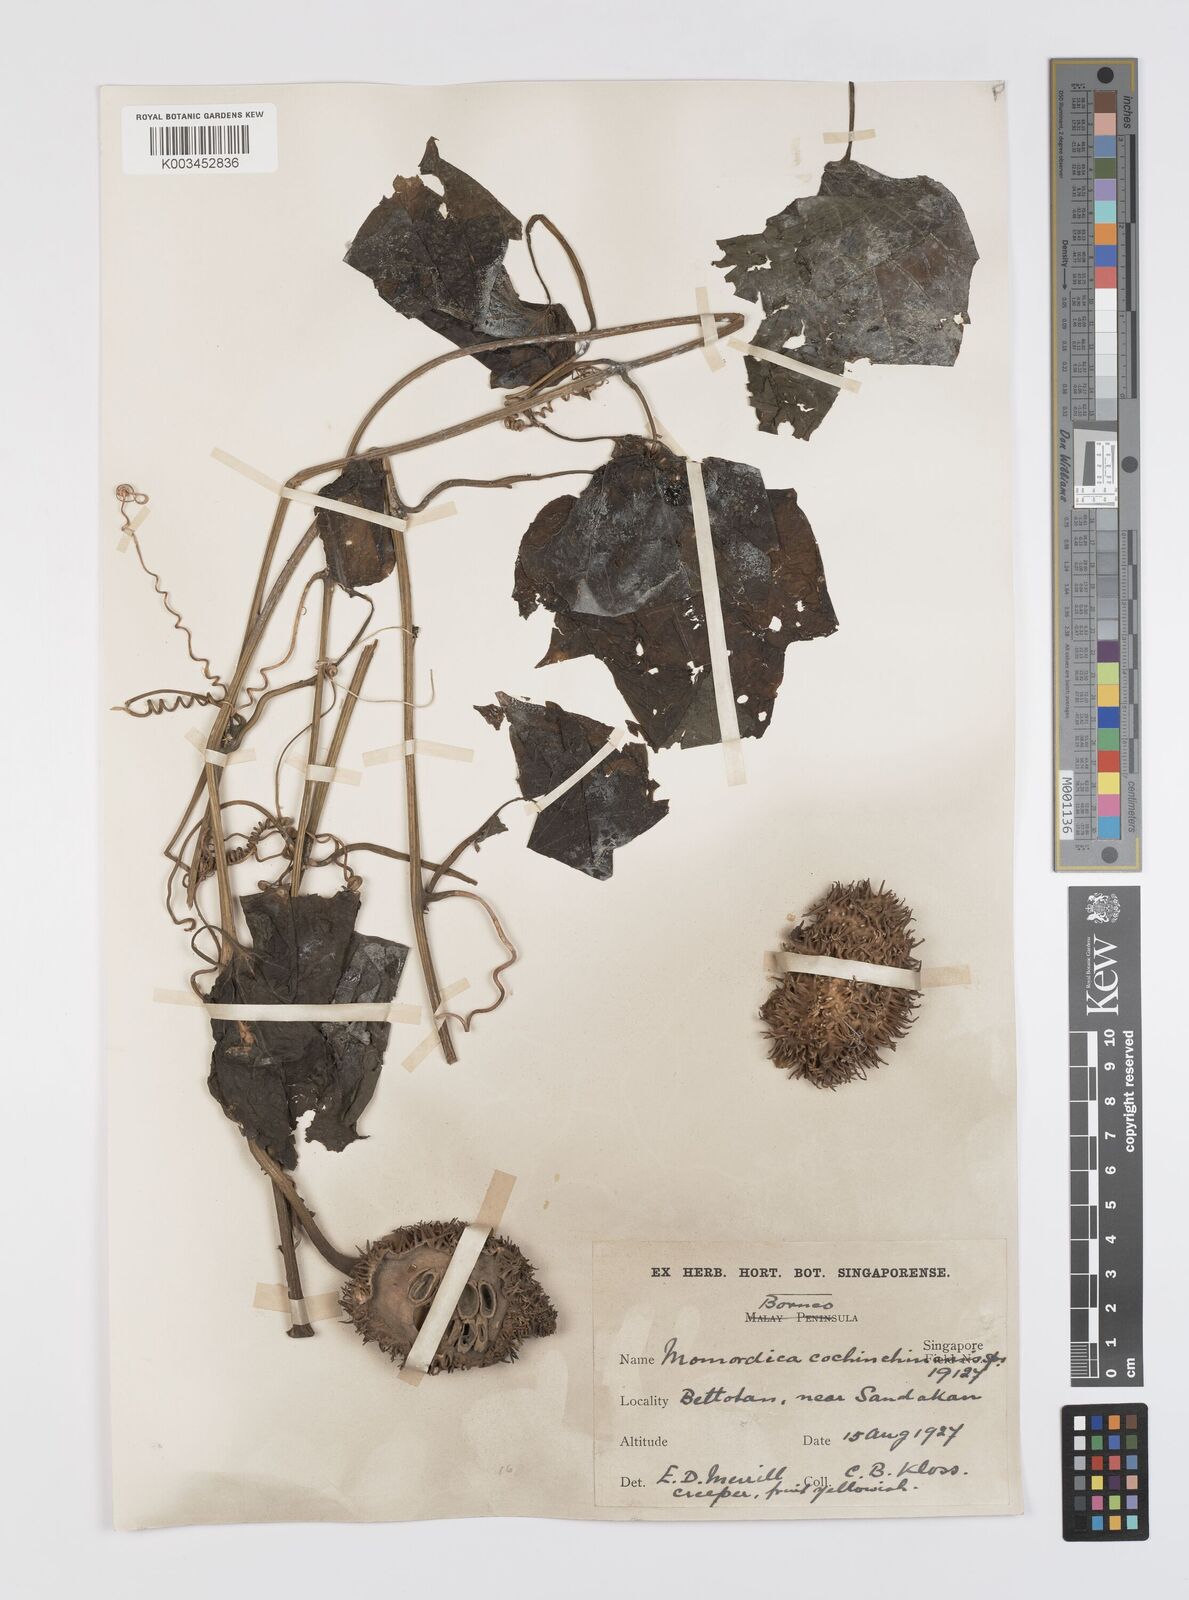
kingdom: Plantae
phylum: Tracheophyta
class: Magnoliopsida
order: Cucurbitales
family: Cucurbitaceae
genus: Momordica
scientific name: Momordica cochinchinensis
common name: Chinese bitter-cucumber
